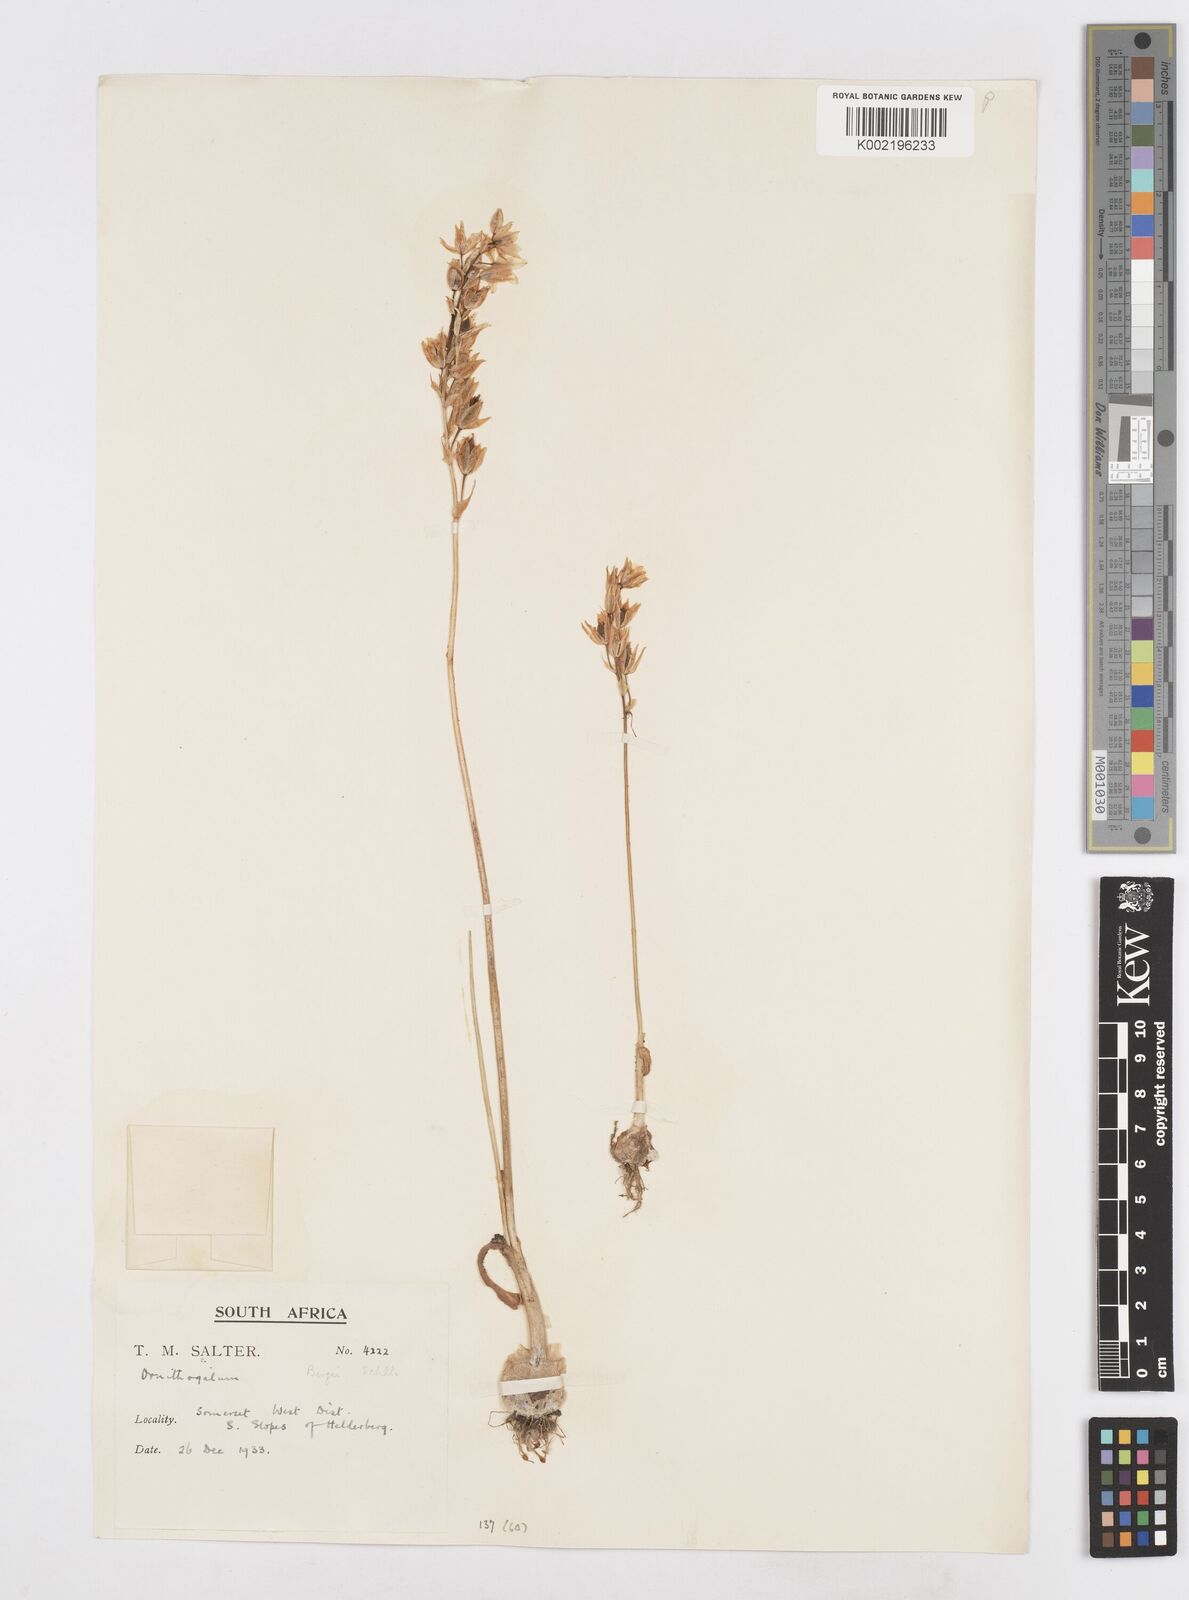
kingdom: Plantae
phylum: Tracheophyta
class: Liliopsida
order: Asparagales
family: Asparagaceae
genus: Ornithogalum
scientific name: Ornithogalum hispidum
